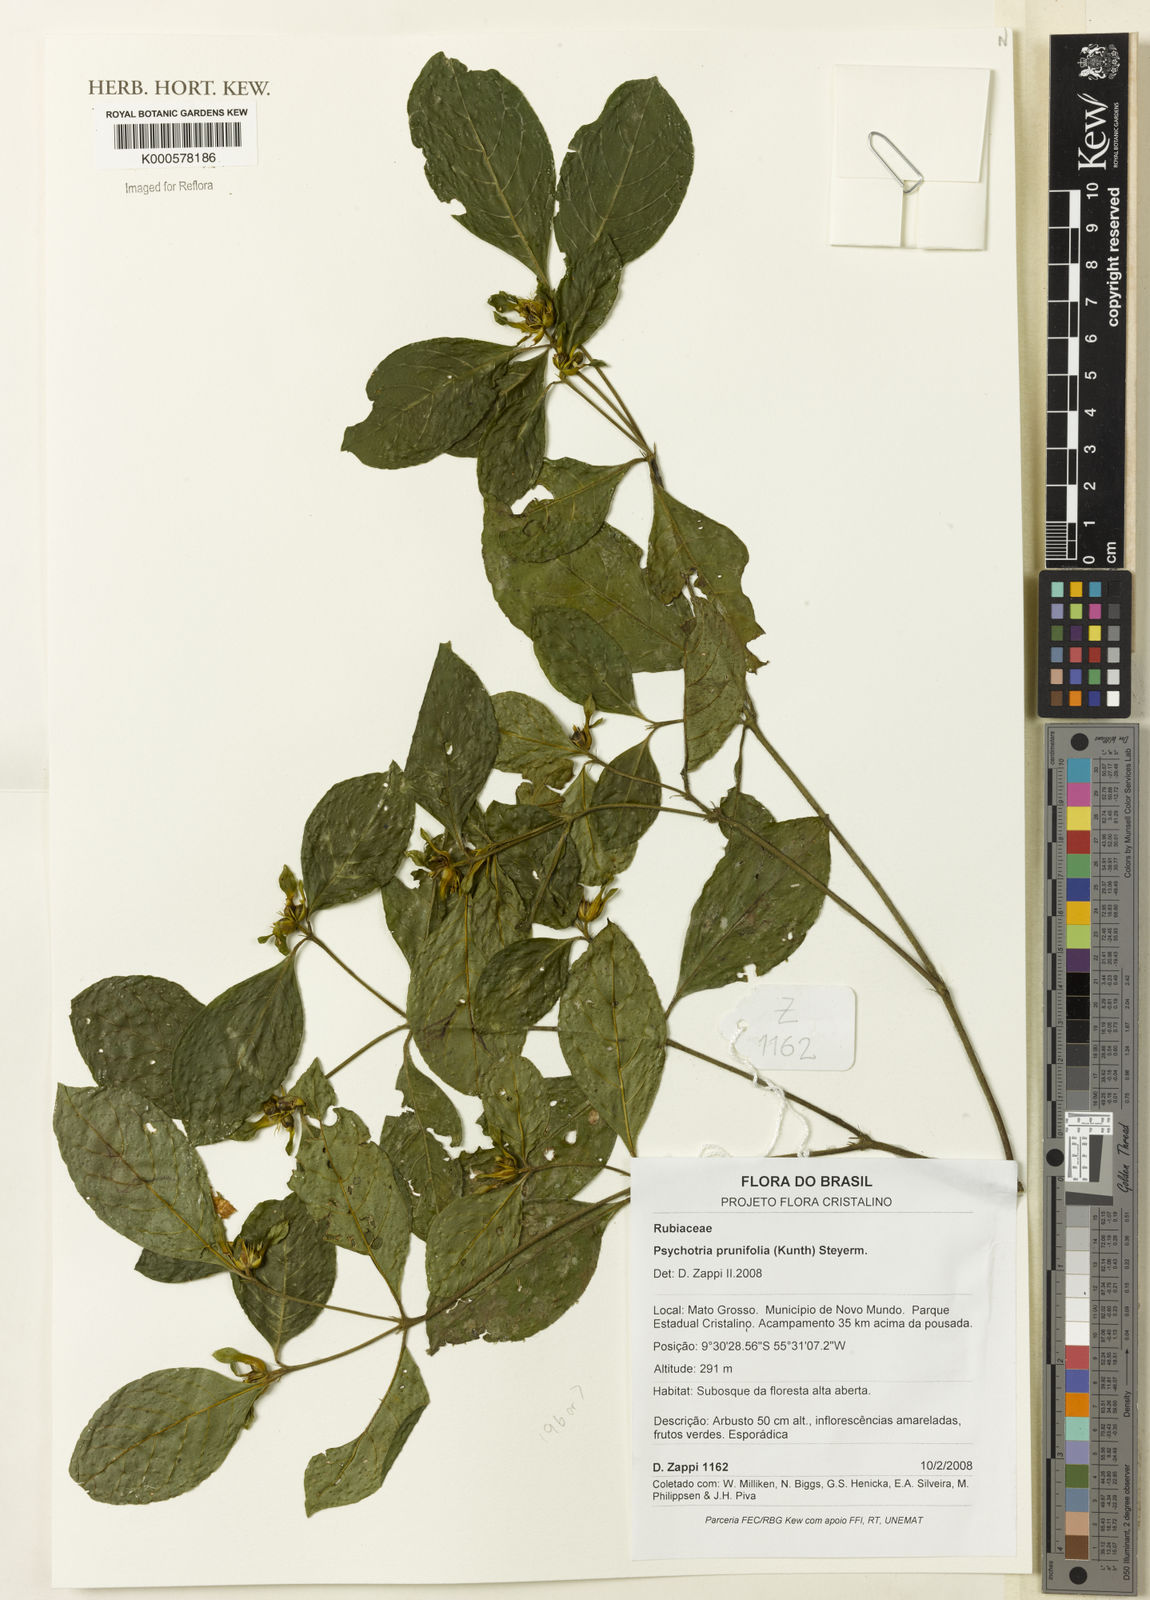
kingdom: Plantae
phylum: Tracheophyta
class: Magnoliopsida
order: Gentianales
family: Rubiaceae
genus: Palicourea
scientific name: Palicourea prunifolia
